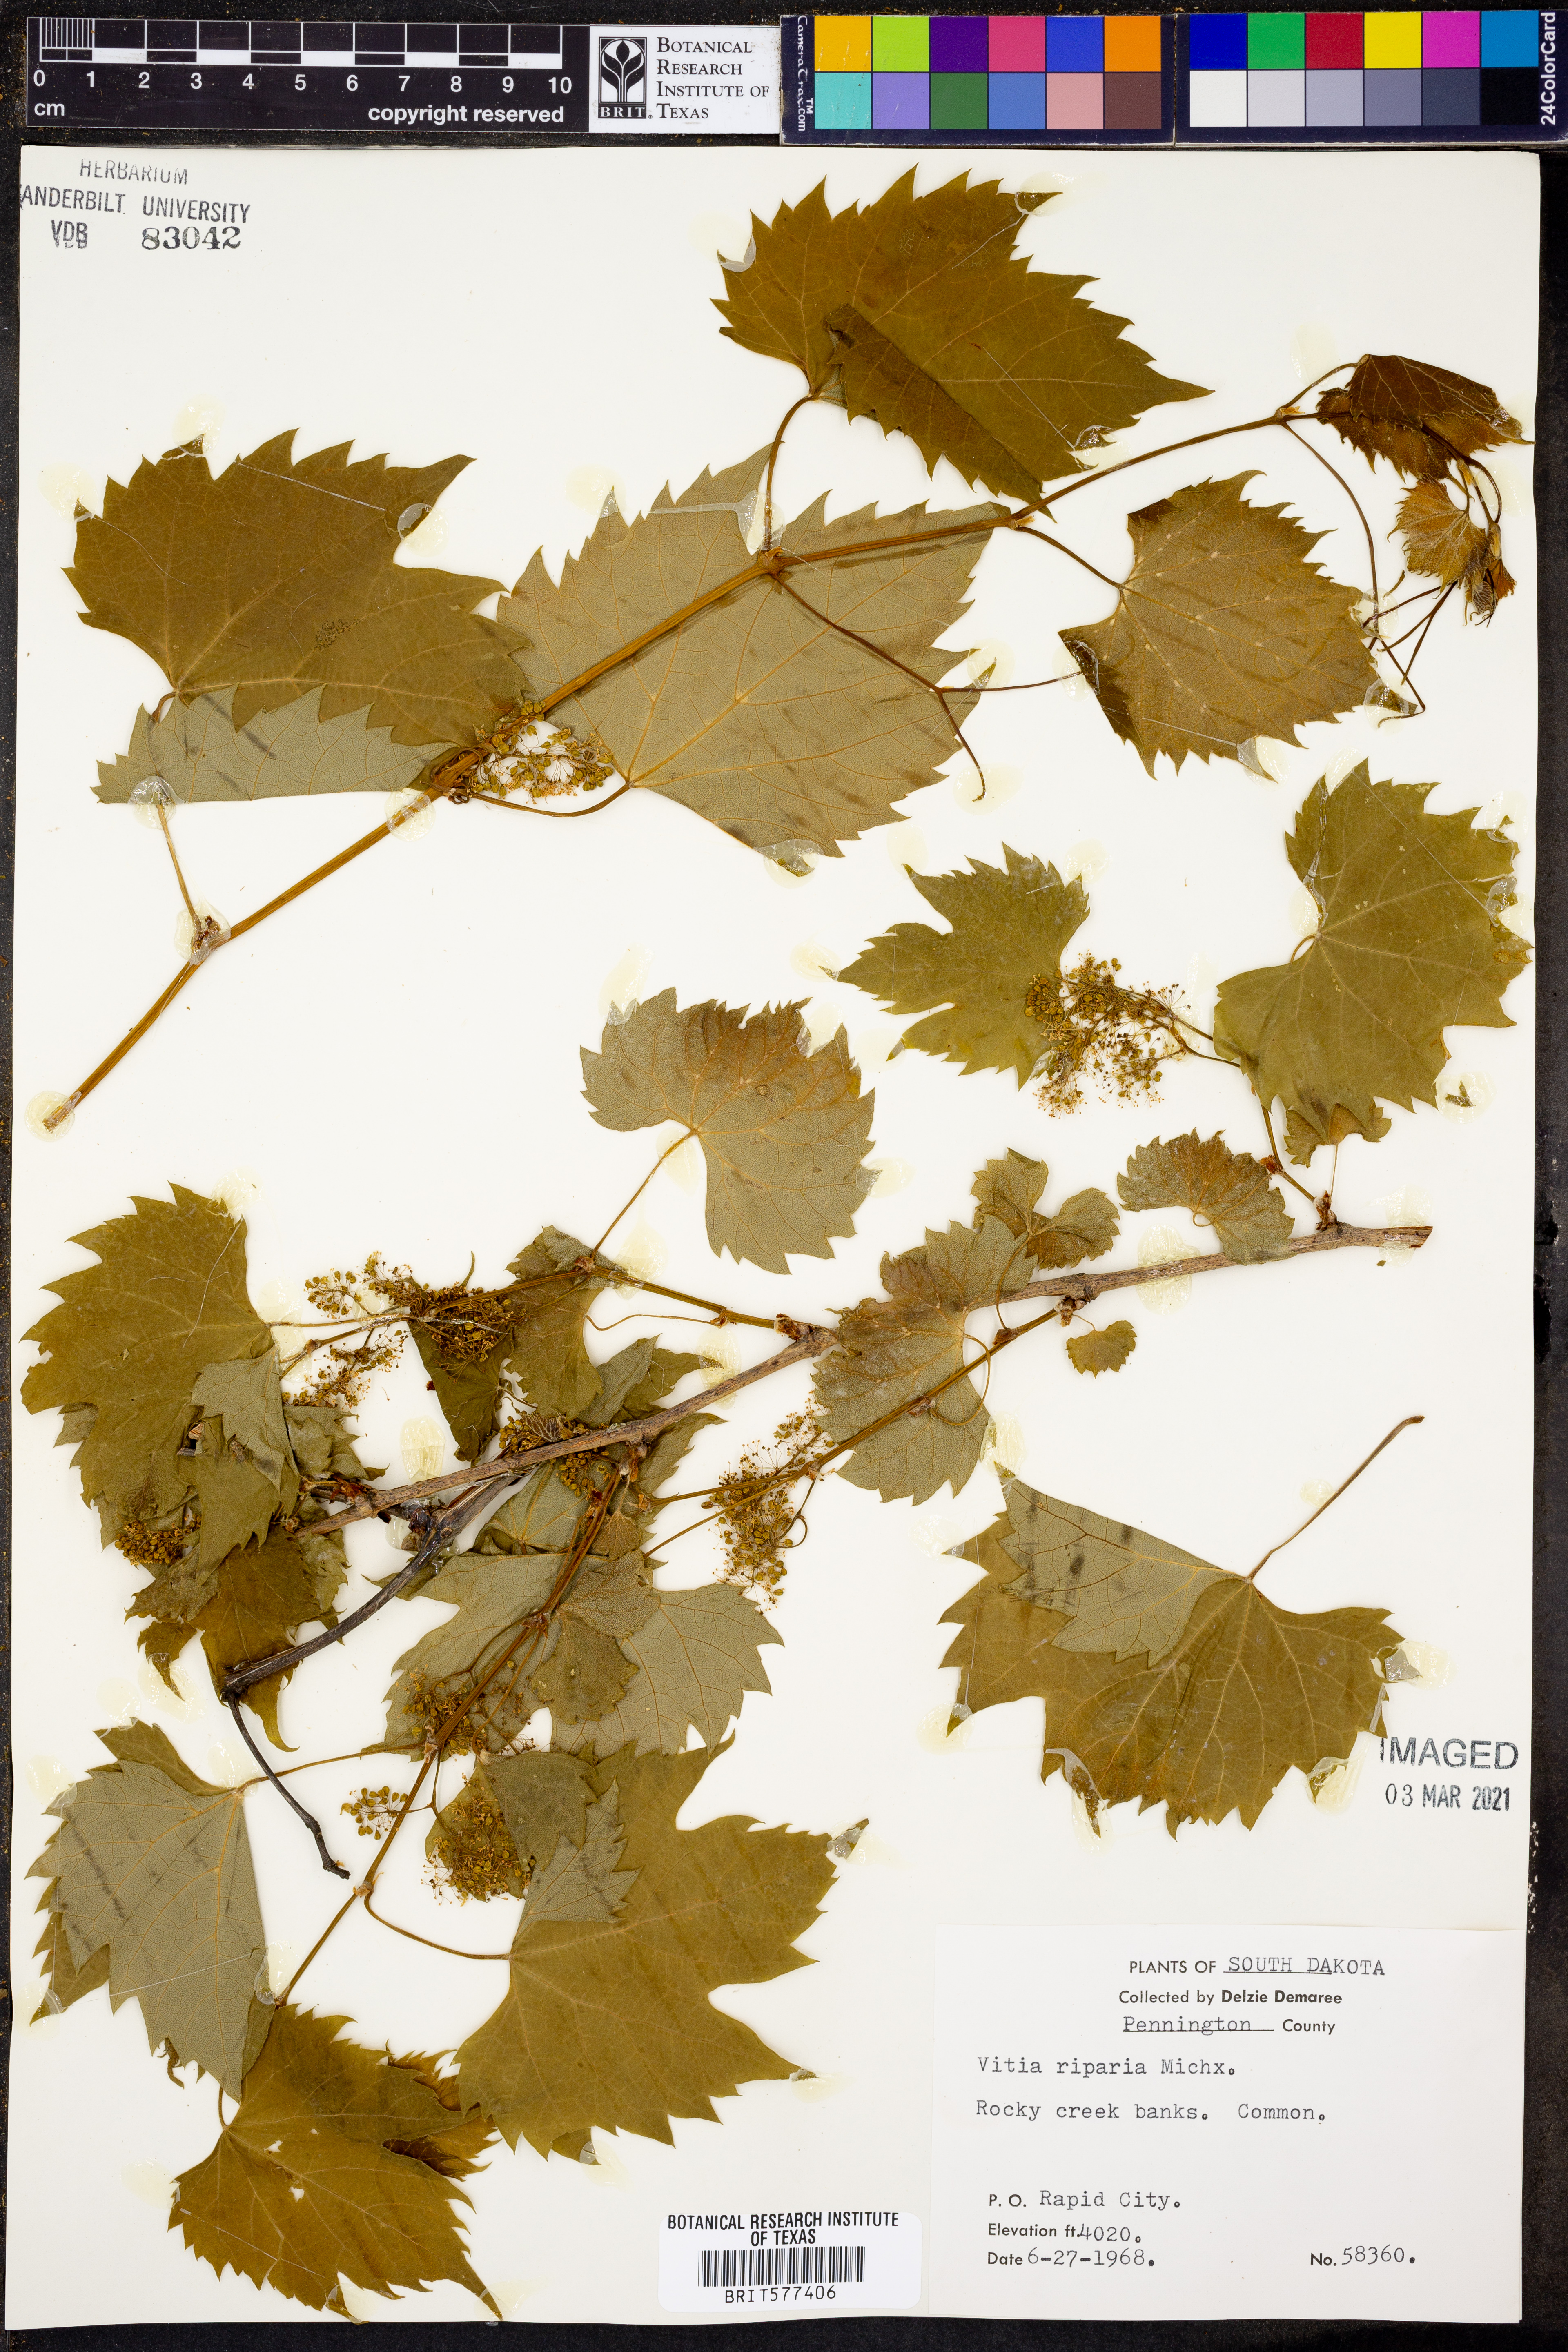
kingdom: Plantae
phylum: Tracheophyta
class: Magnoliopsida
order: Vitales
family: Vitaceae
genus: Vitis
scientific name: Vitis riparia
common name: Frost grape
